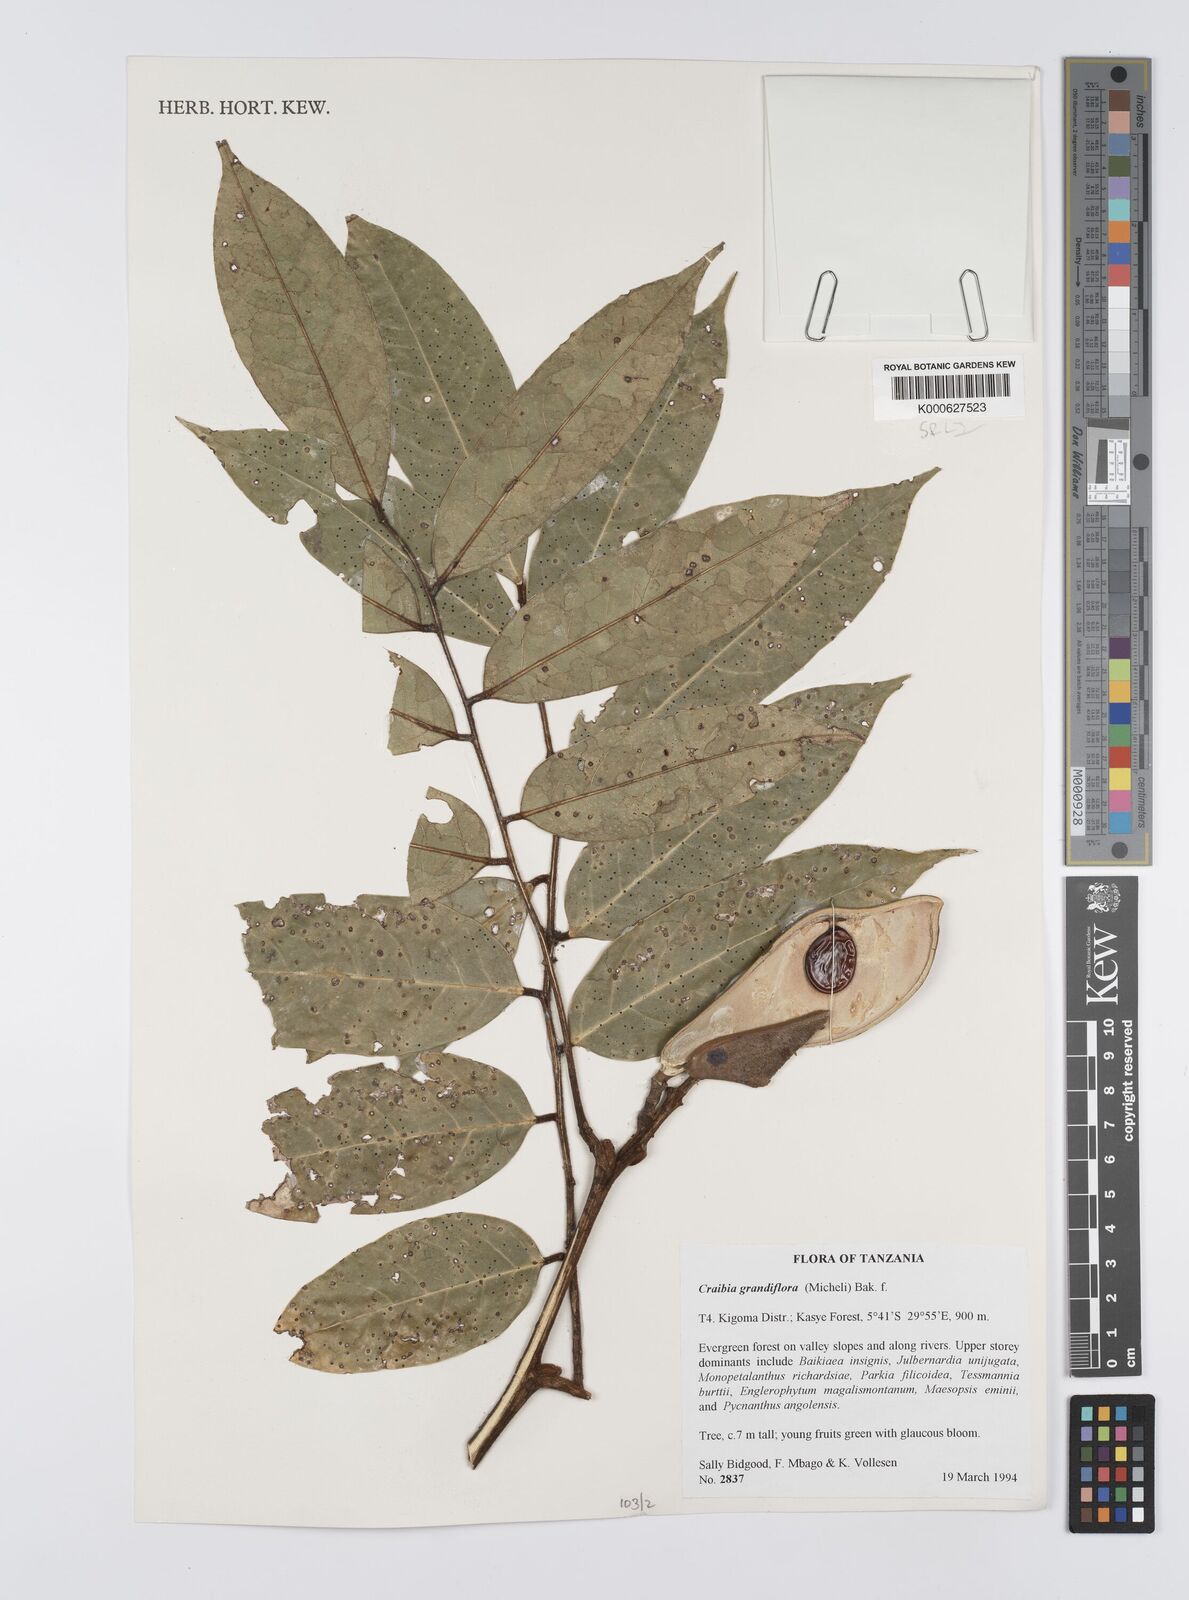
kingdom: Plantae
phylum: Tracheophyta
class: Magnoliopsida
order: Fabales
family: Fabaceae
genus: Craibia
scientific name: Craibia grandiflora
